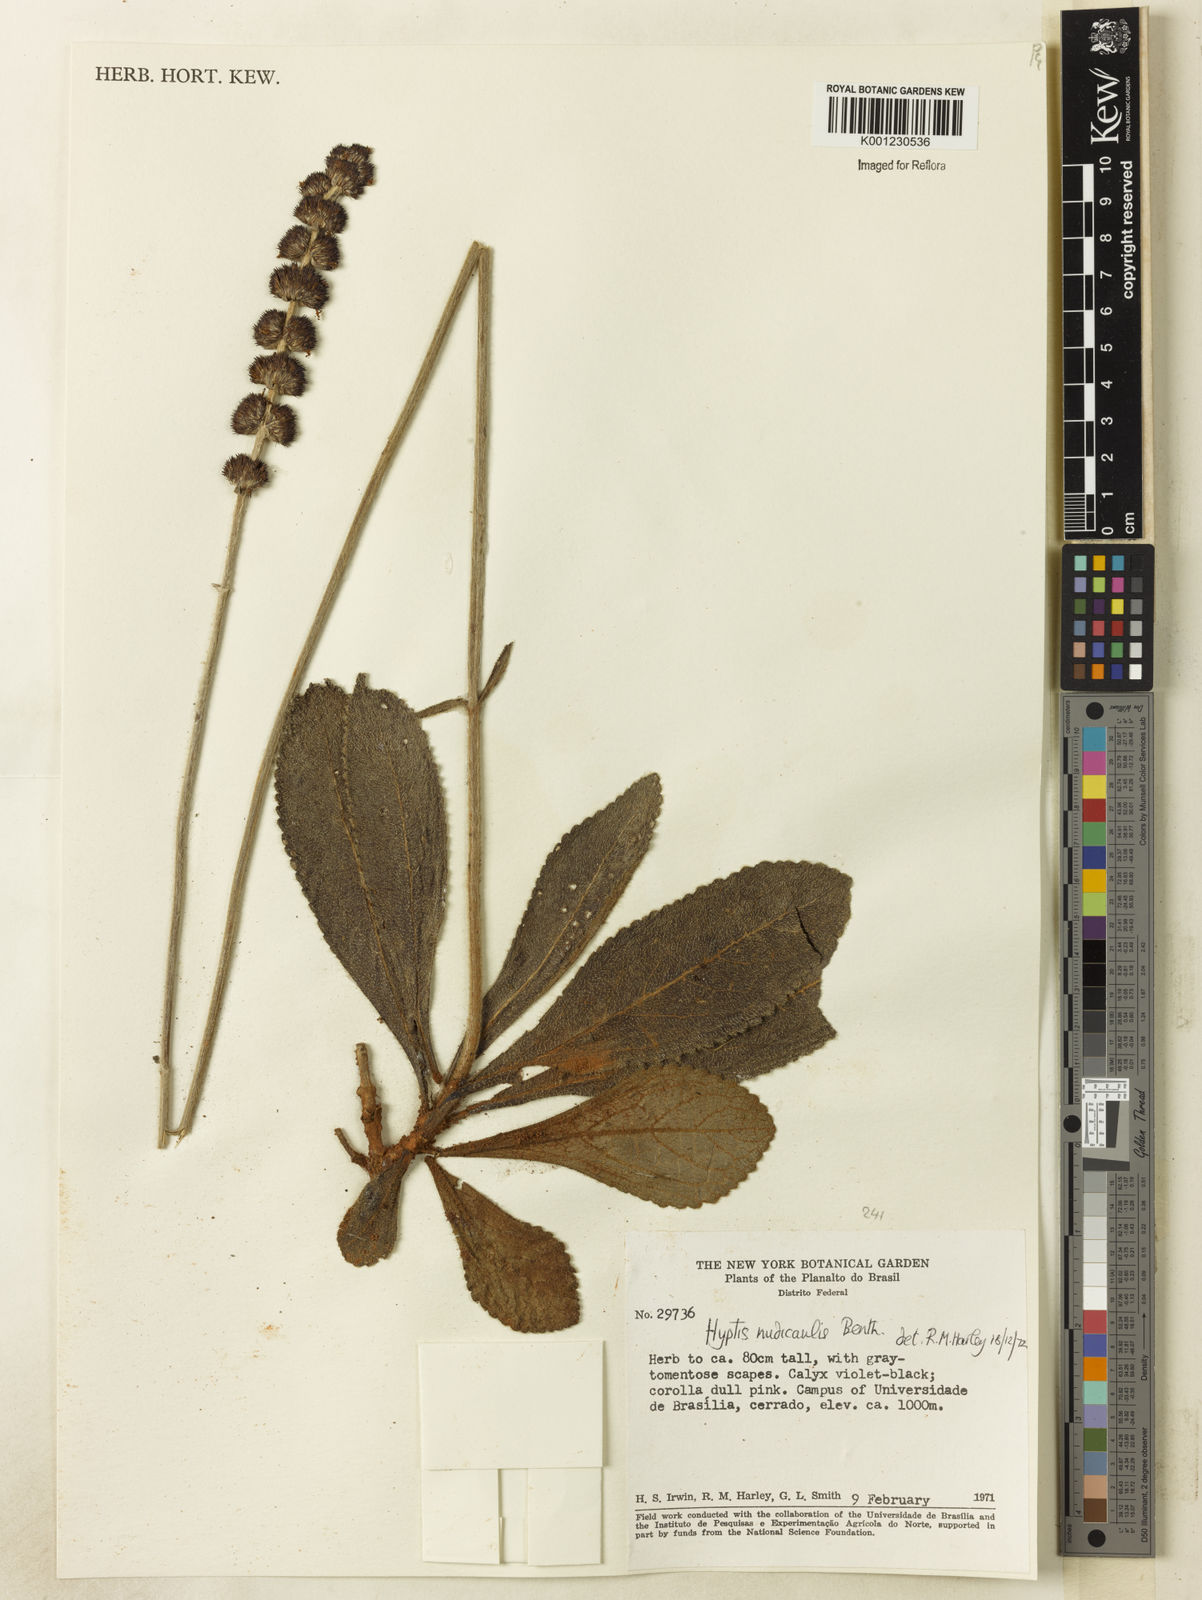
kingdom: Plantae
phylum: Tracheophyta
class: Magnoliopsida
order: Lamiales
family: Lamiaceae
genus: Hyptis
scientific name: Hyptis nudicaulis
